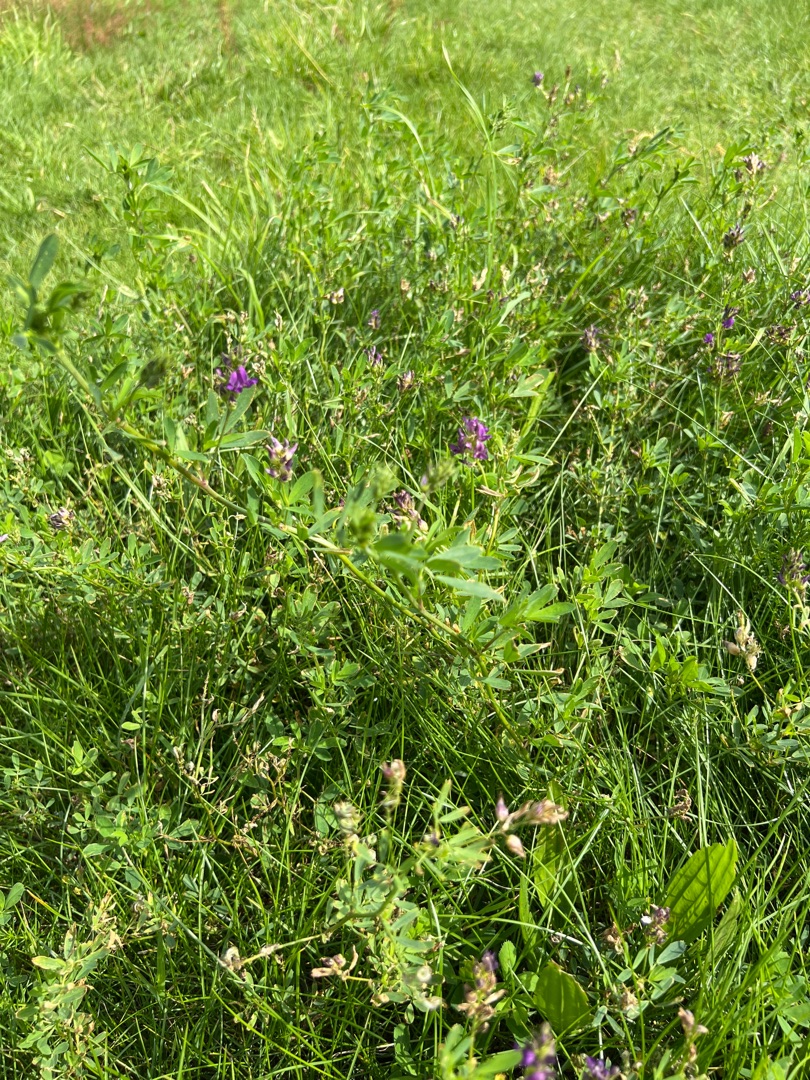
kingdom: Plantae
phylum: Tracheophyta
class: Magnoliopsida
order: Fabales
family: Fabaceae
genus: Medicago
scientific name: Medicago sativa
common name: Foderlucerne
